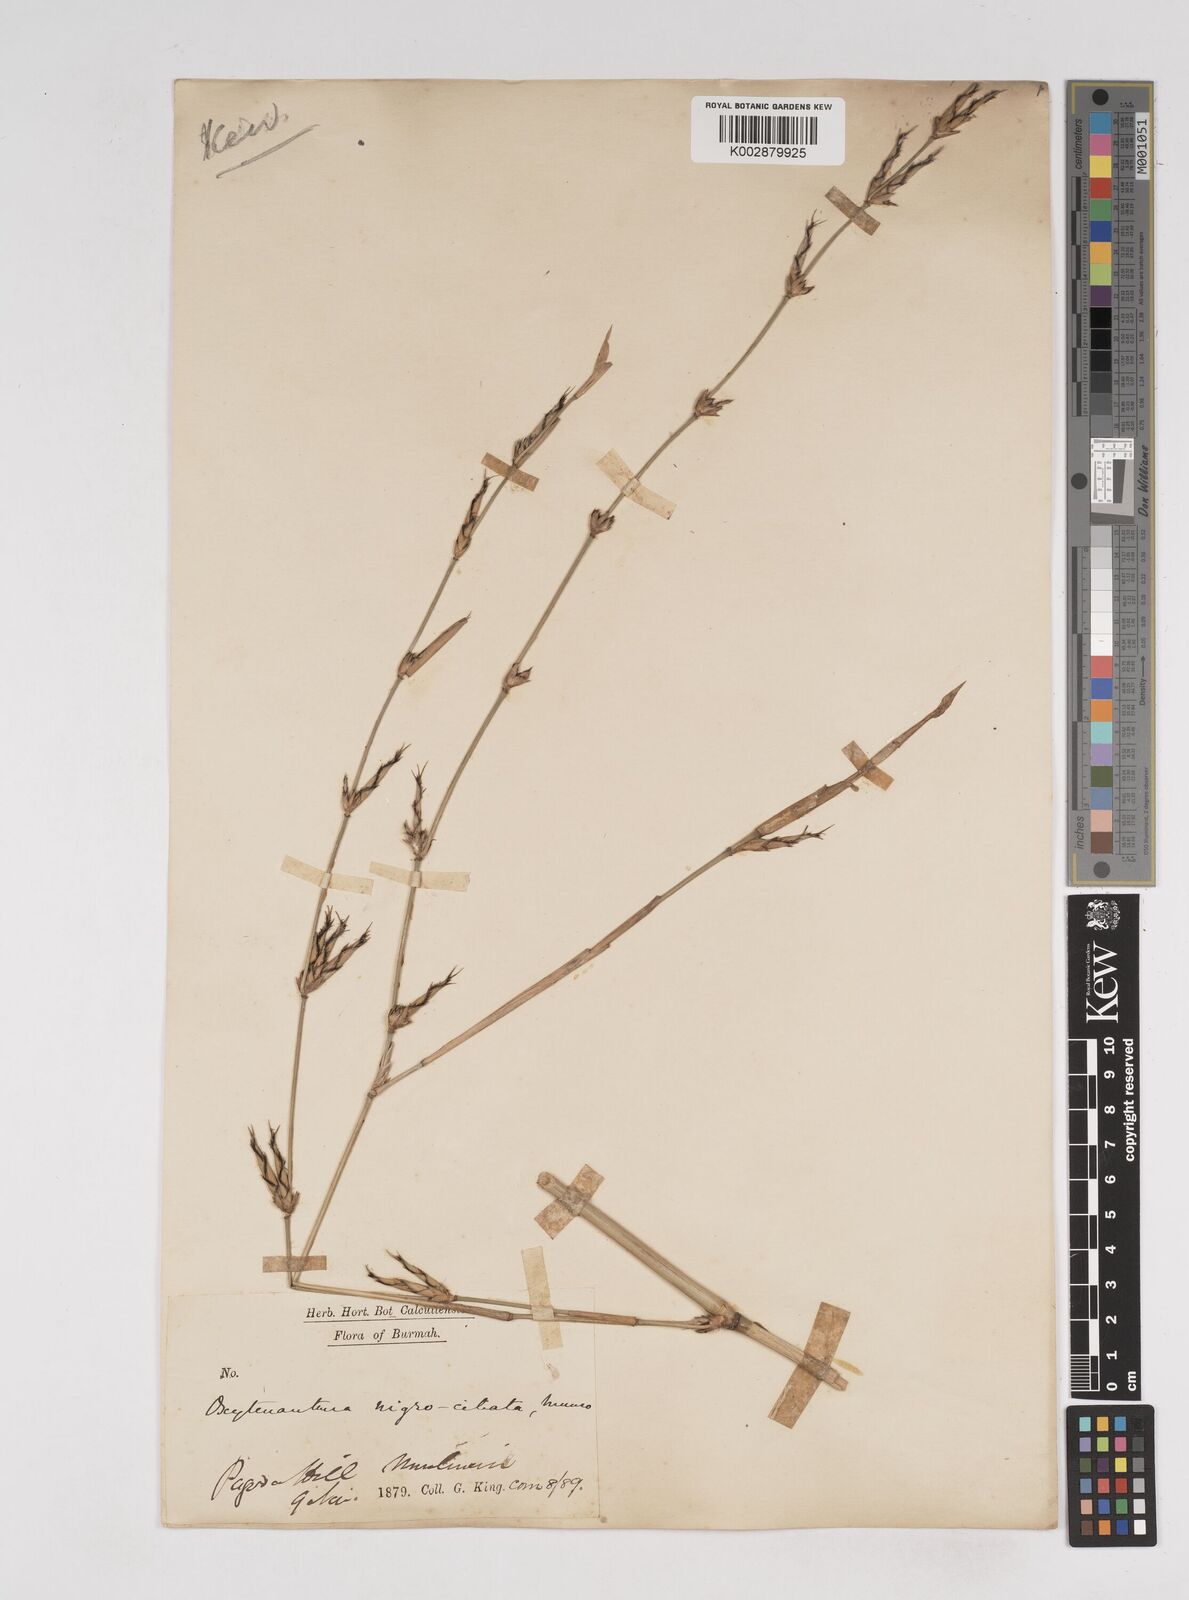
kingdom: Plantae
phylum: Tracheophyta
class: Liliopsida
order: Poales
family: Poaceae
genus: Gigantochloa
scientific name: Gigantochloa nigrociliata
